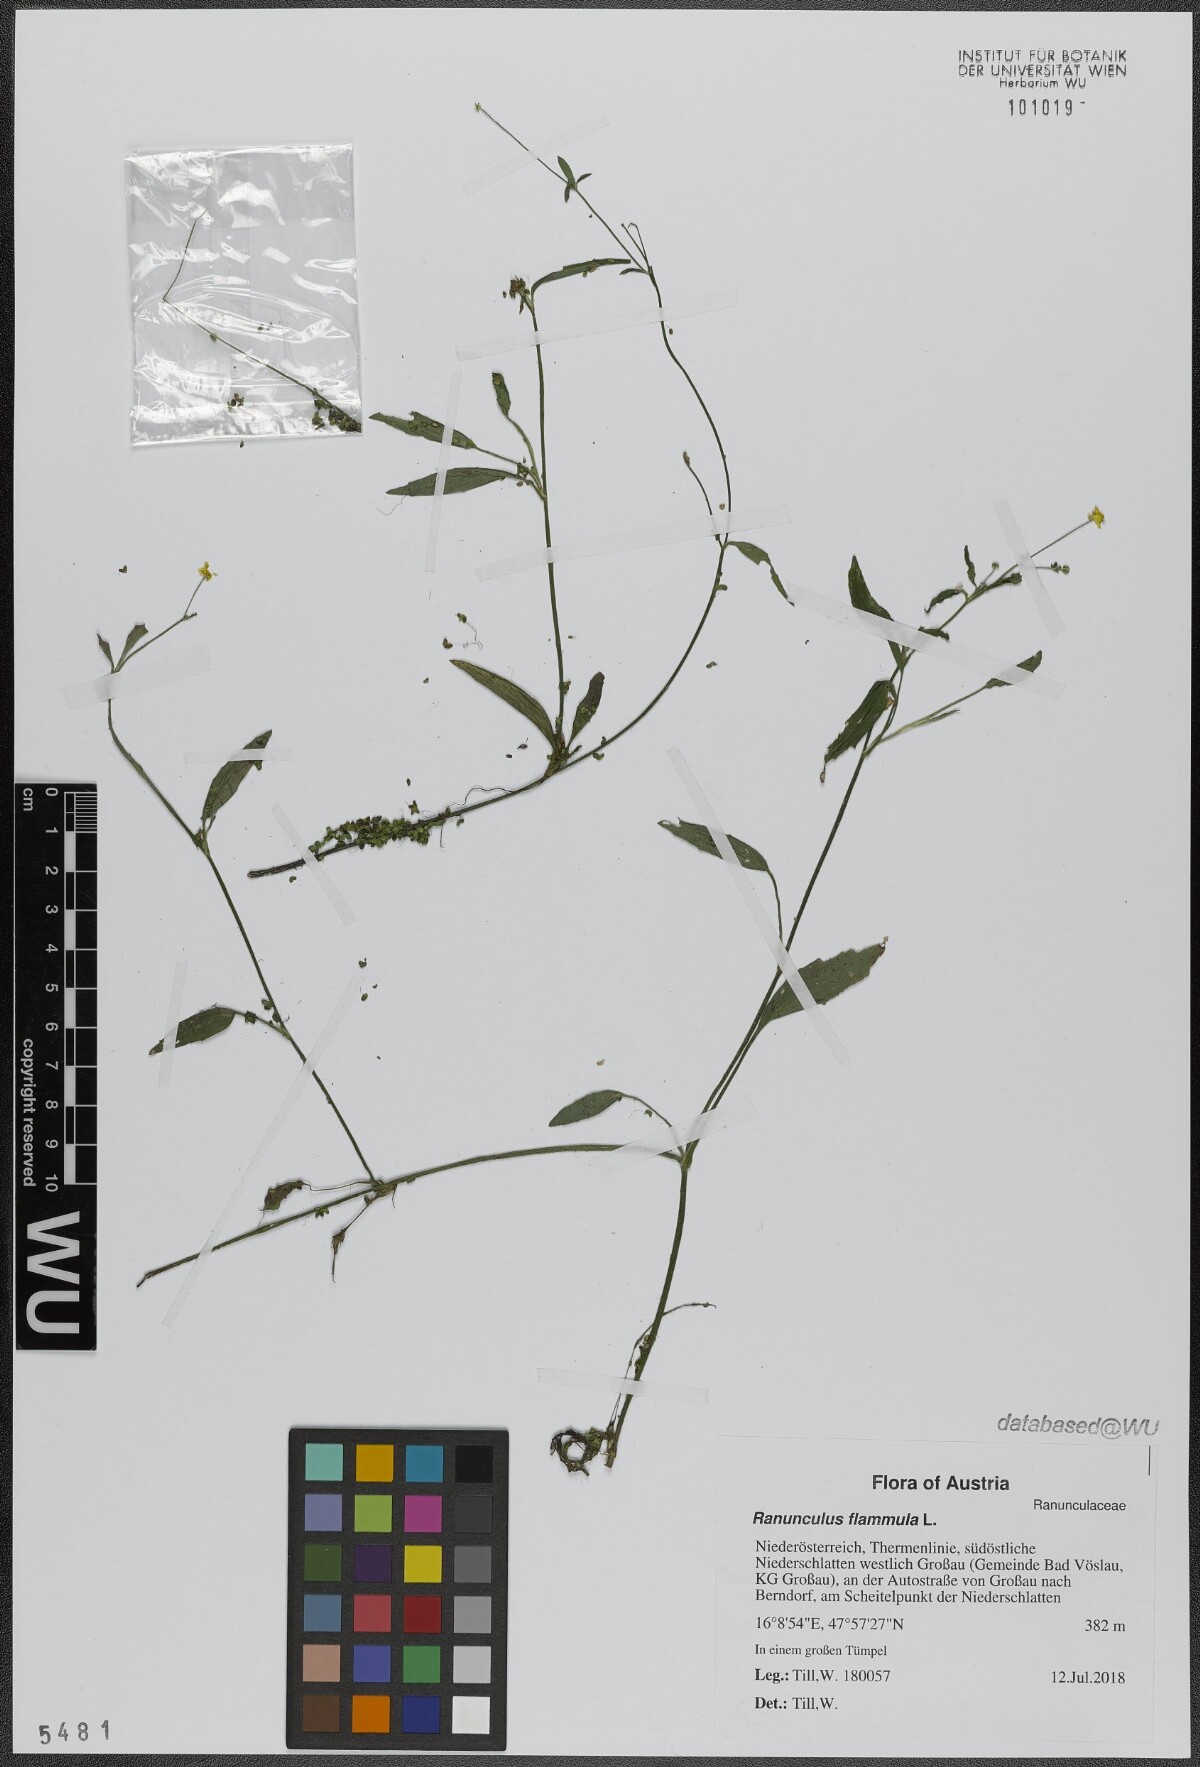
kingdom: Plantae
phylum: Tracheophyta
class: Magnoliopsida
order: Ranunculales
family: Ranunculaceae
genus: Ranunculus
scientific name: Ranunculus flammula
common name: Lesser spearwort
